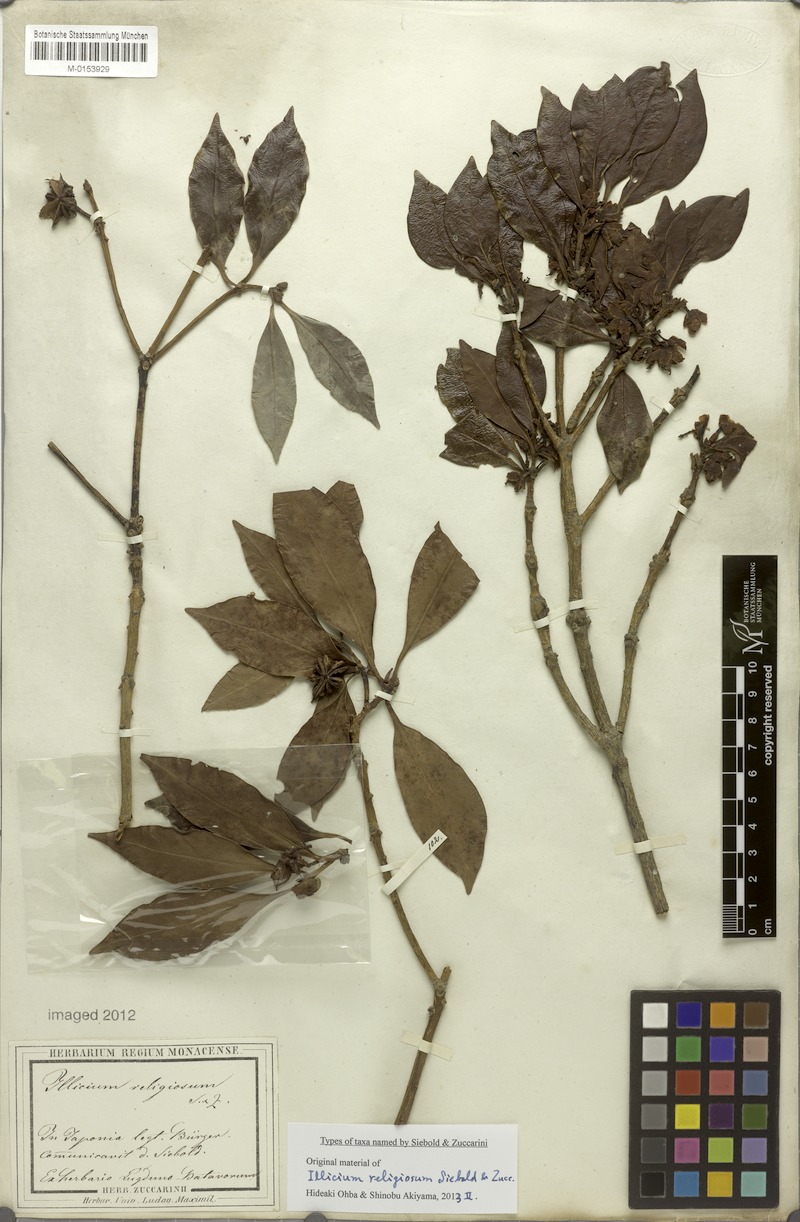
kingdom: Plantae
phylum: Tracheophyta
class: Magnoliopsida
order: Austrobaileyales
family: Schisandraceae
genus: Illicium
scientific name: Illicium anisatum
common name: Sacred anisetree
